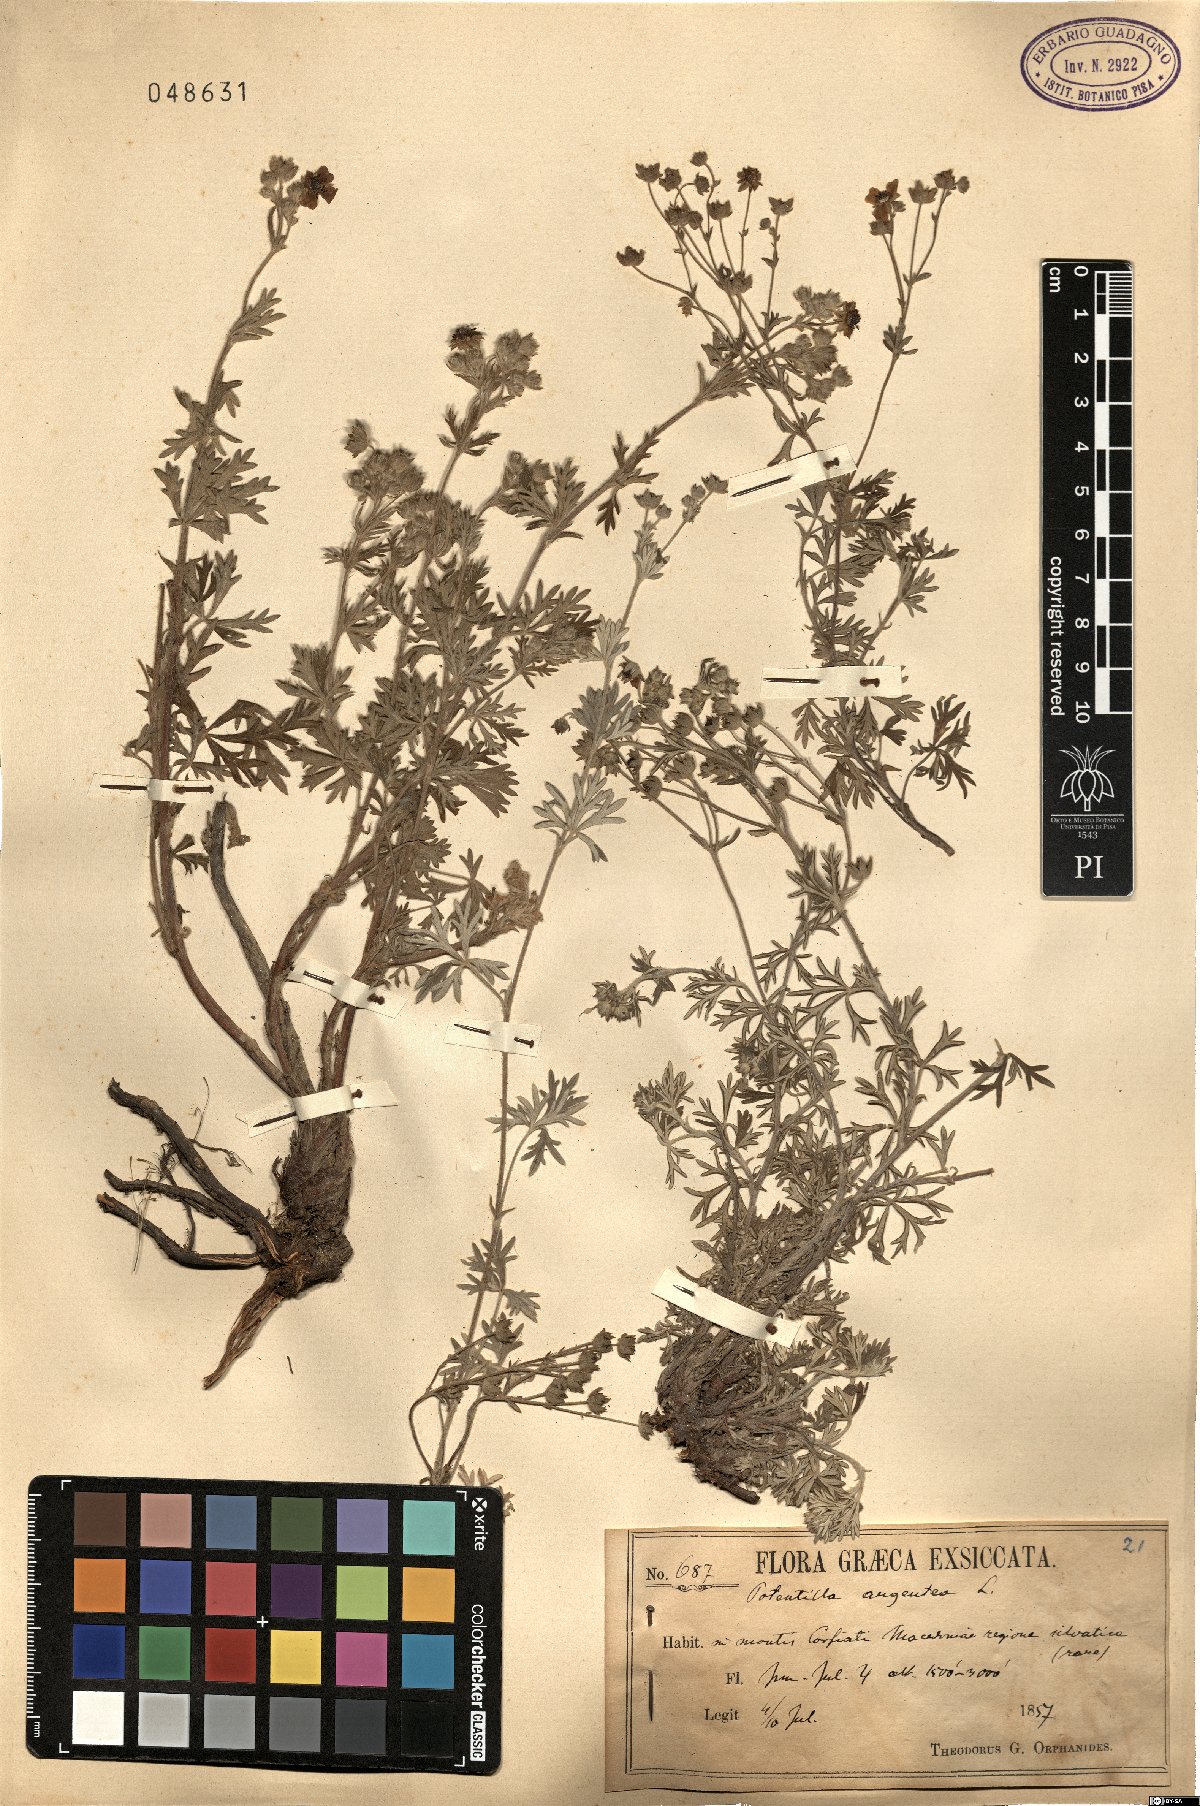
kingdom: Plantae
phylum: Tracheophyta
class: Magnoliopsida
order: Rosales
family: Rosaceae
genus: Potentilla
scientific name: Potentilla argentea
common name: Hoary cinquefoil
